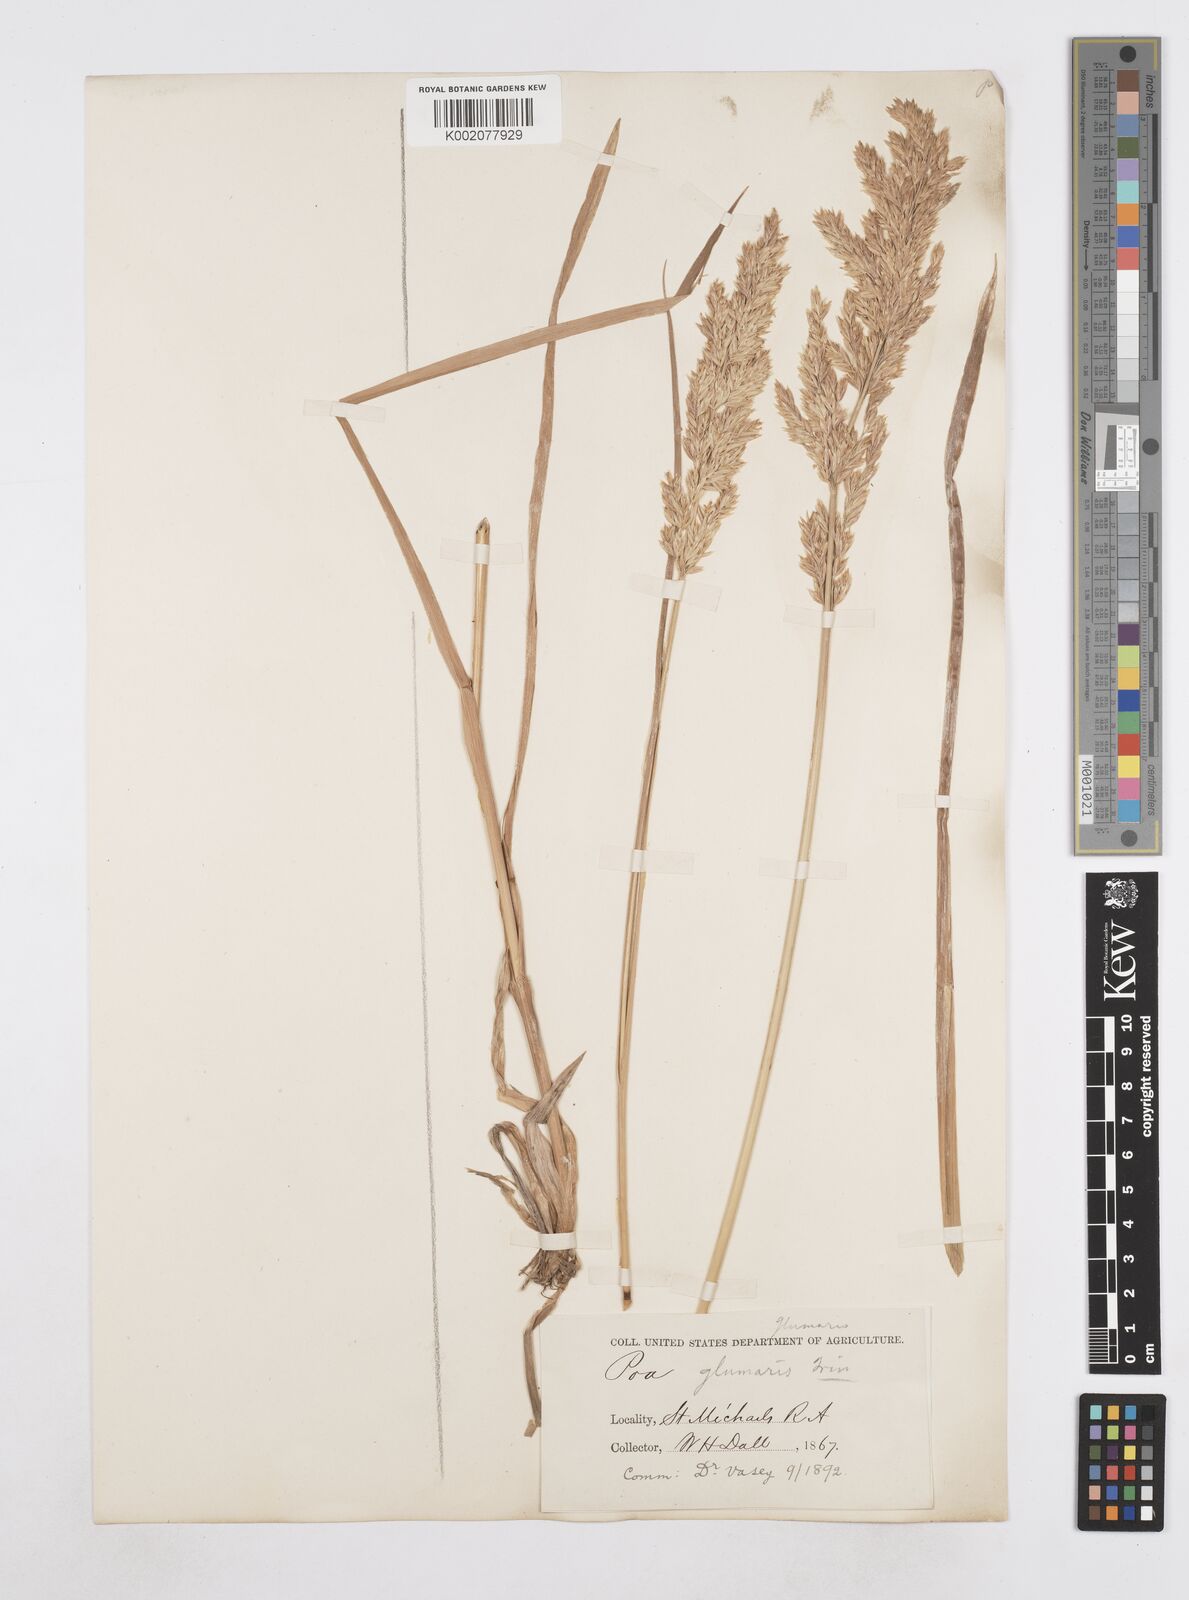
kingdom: Plantae
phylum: Tracheophyta
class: Liliopsida
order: Poales
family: Poaceae
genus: Arctopoa
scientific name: Arctopoa eminens
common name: Eminent bluegrass
